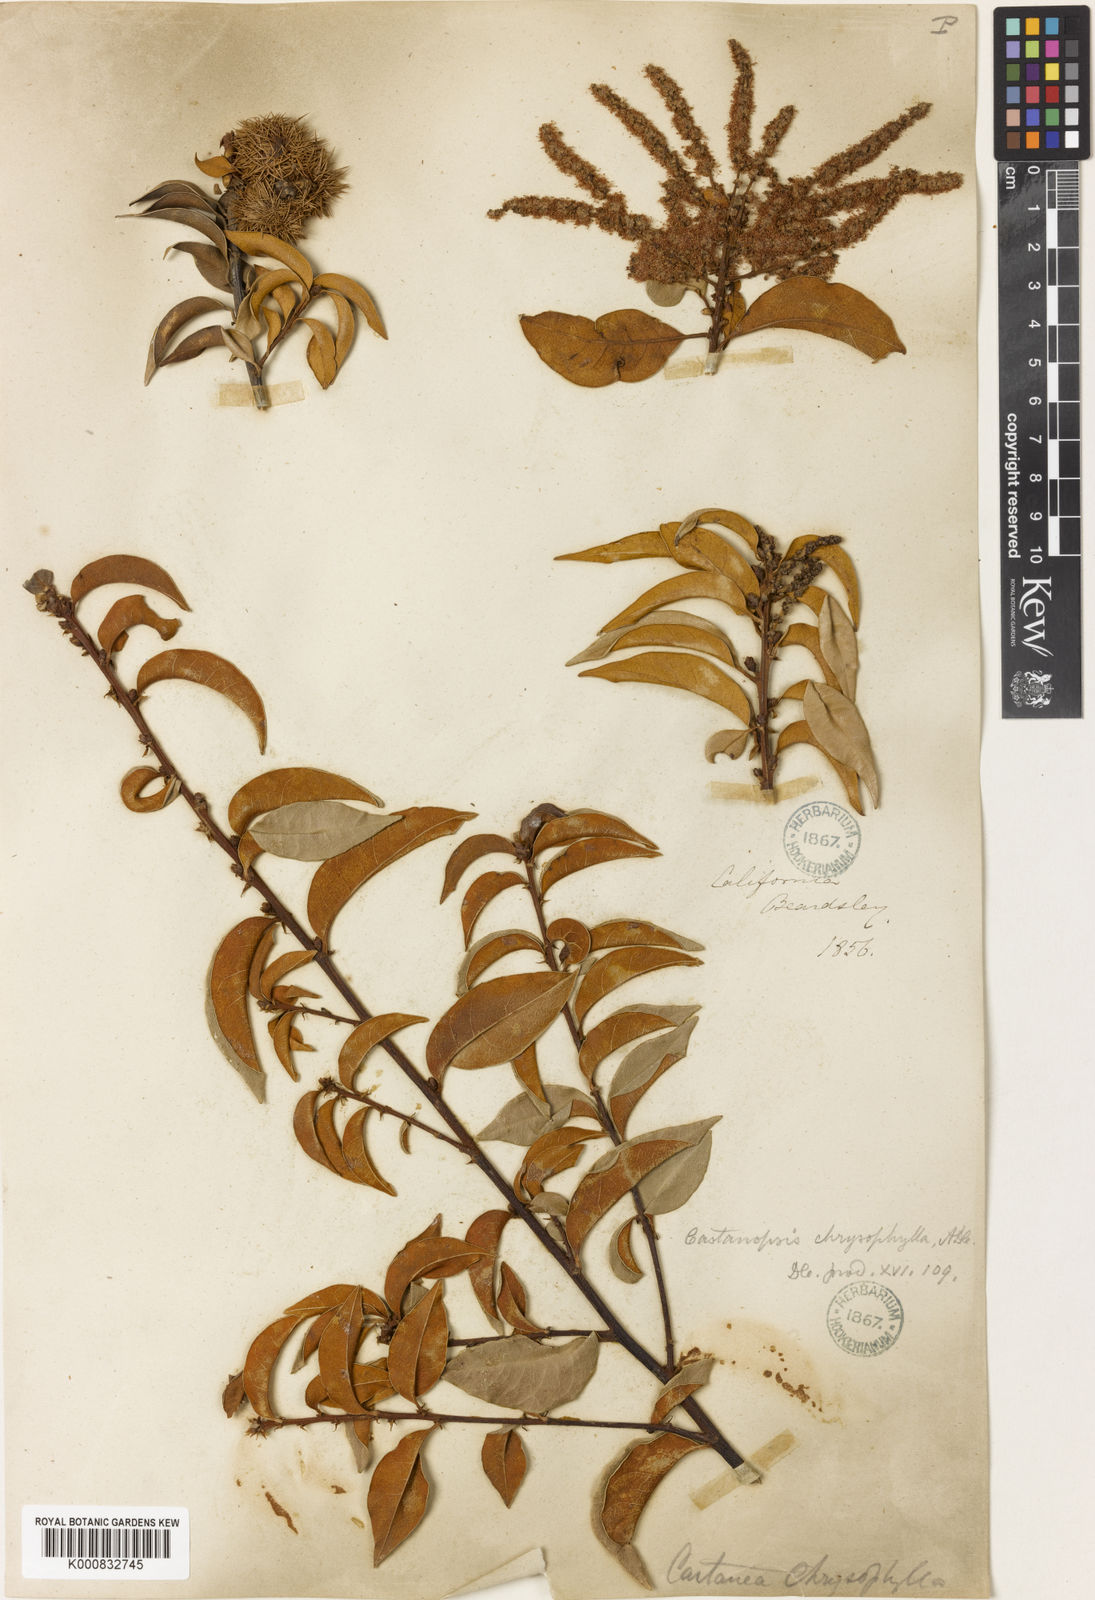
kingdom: Plantae
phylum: Tracheophyta
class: Magnoliopsida
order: Fagales
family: Fagaceae
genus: Chrysolepis
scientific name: Chrysolepis chrysophylla
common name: Giant chinquapin
